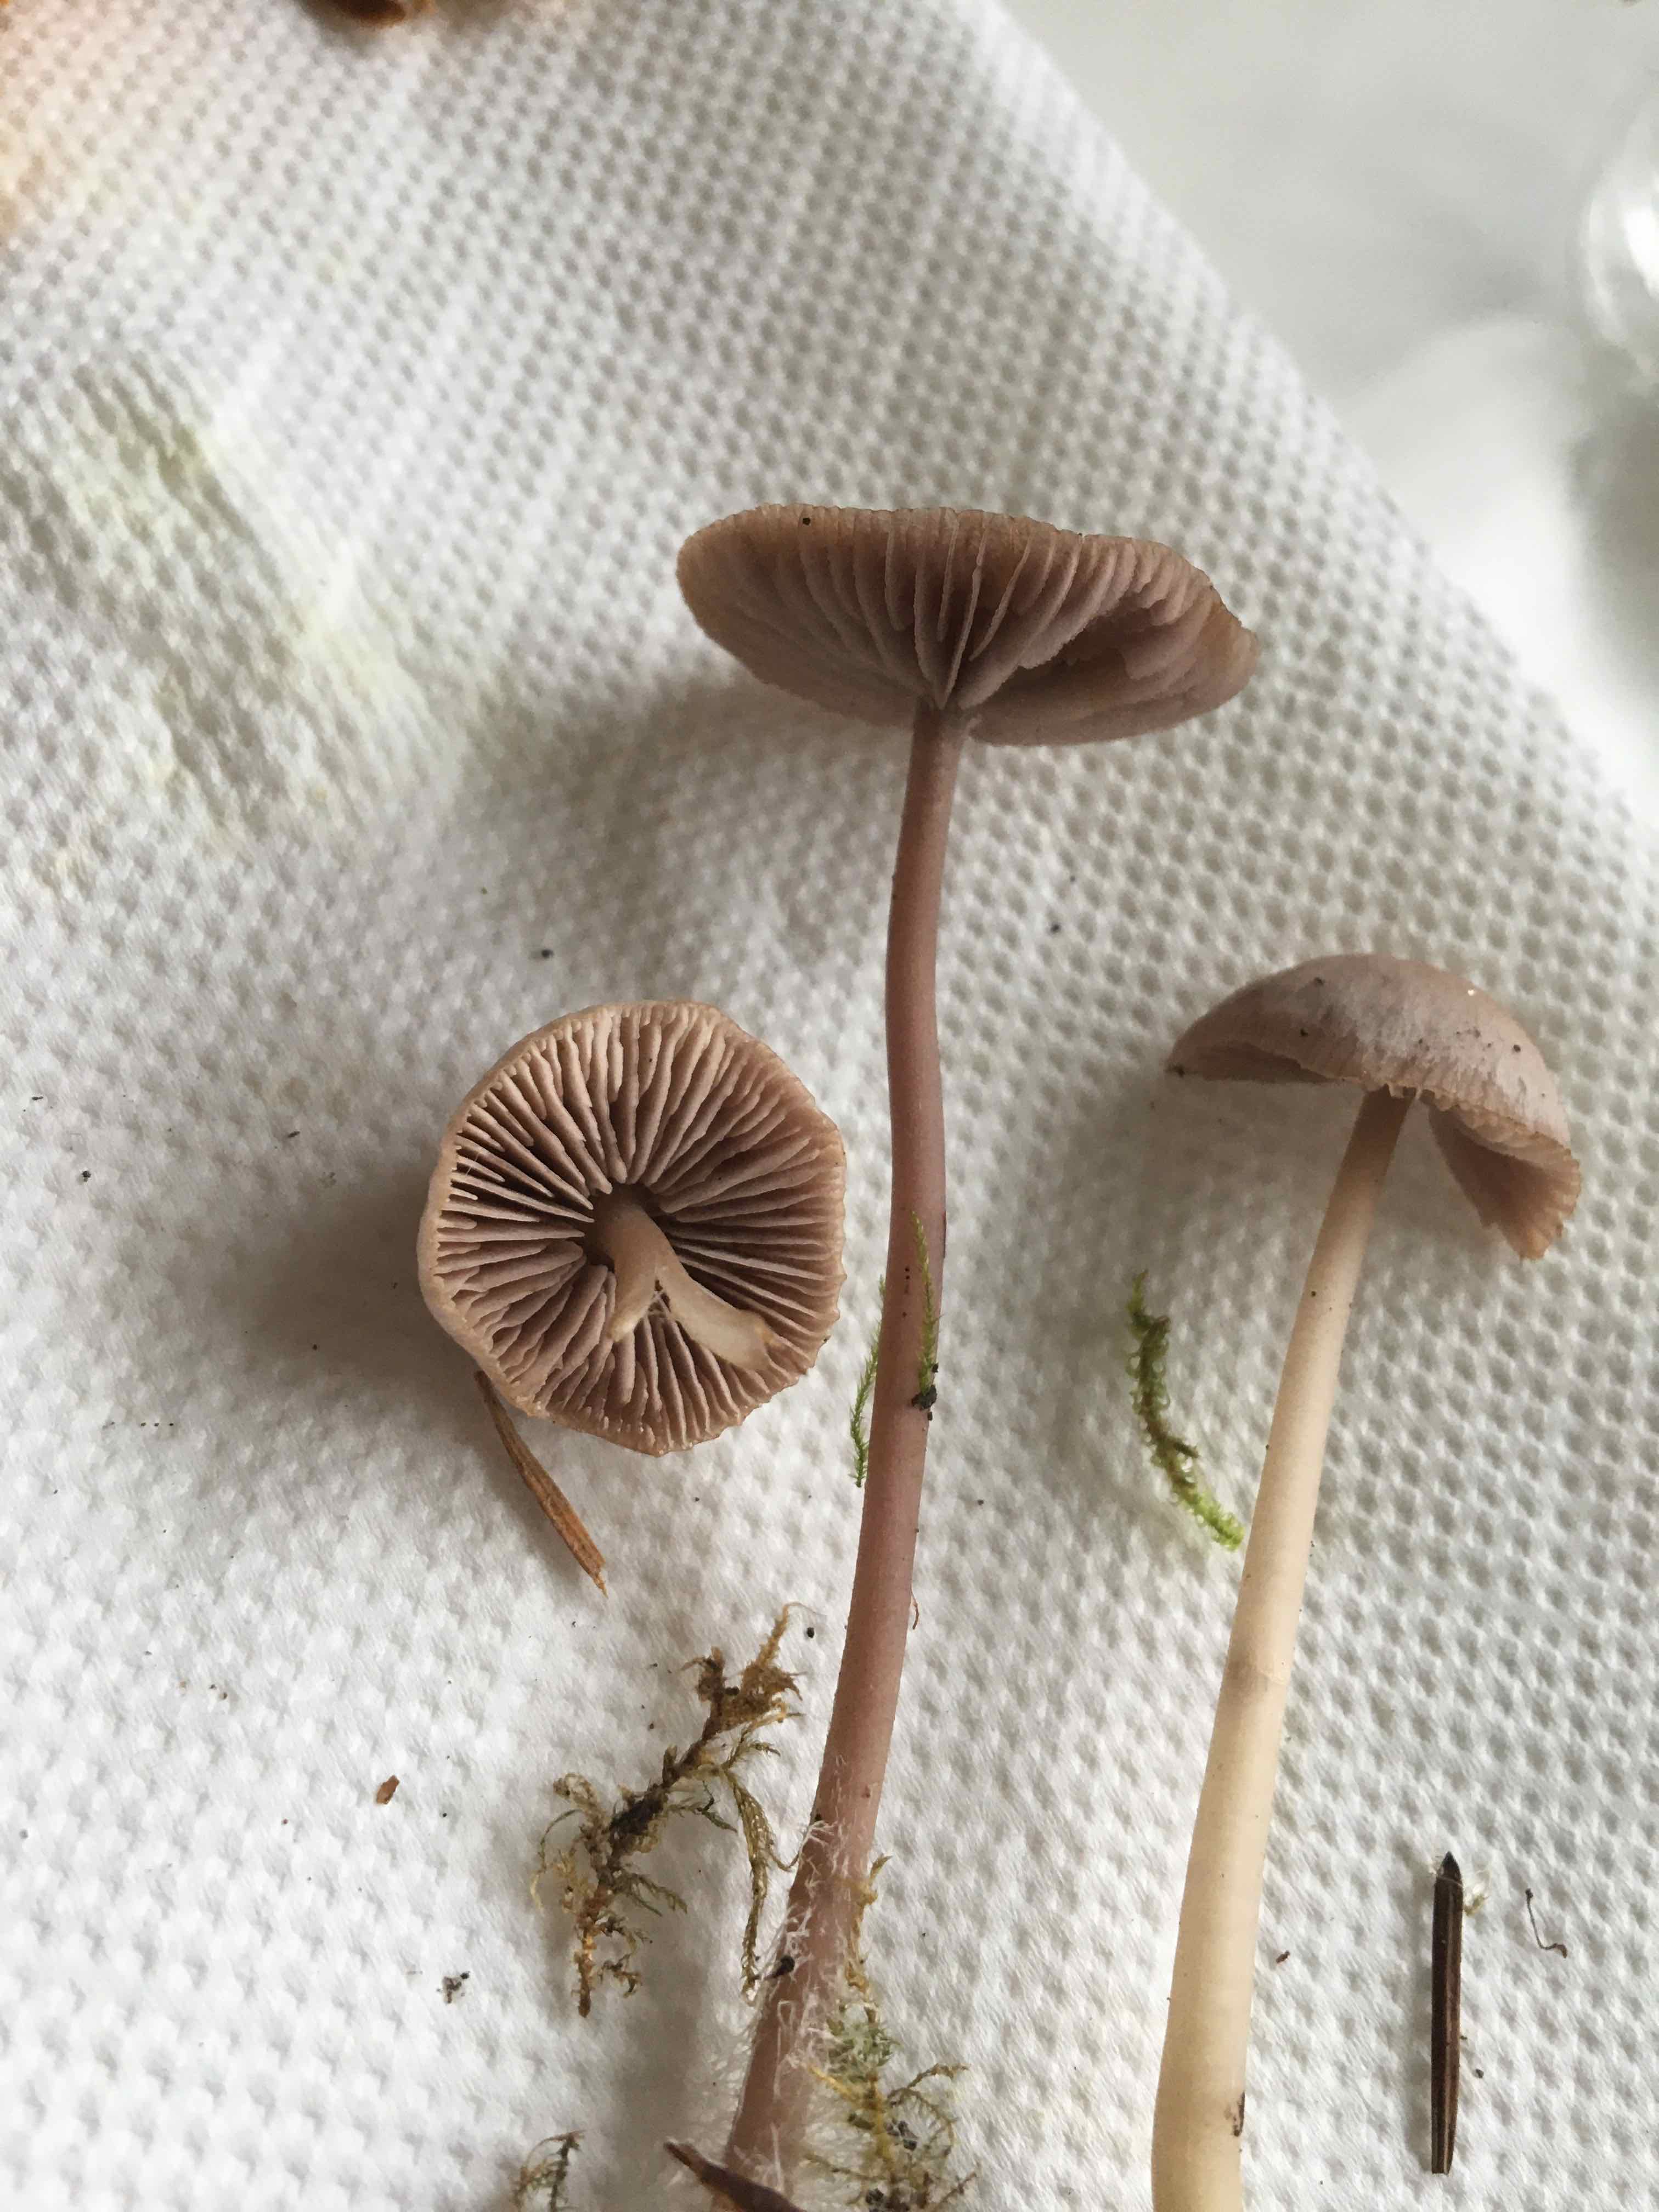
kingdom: Fungi
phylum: Basidiomycota
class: Agaricomycetes
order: Agaricales
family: Mycenaceae
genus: Mycena
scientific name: Mycena
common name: huesvamp
